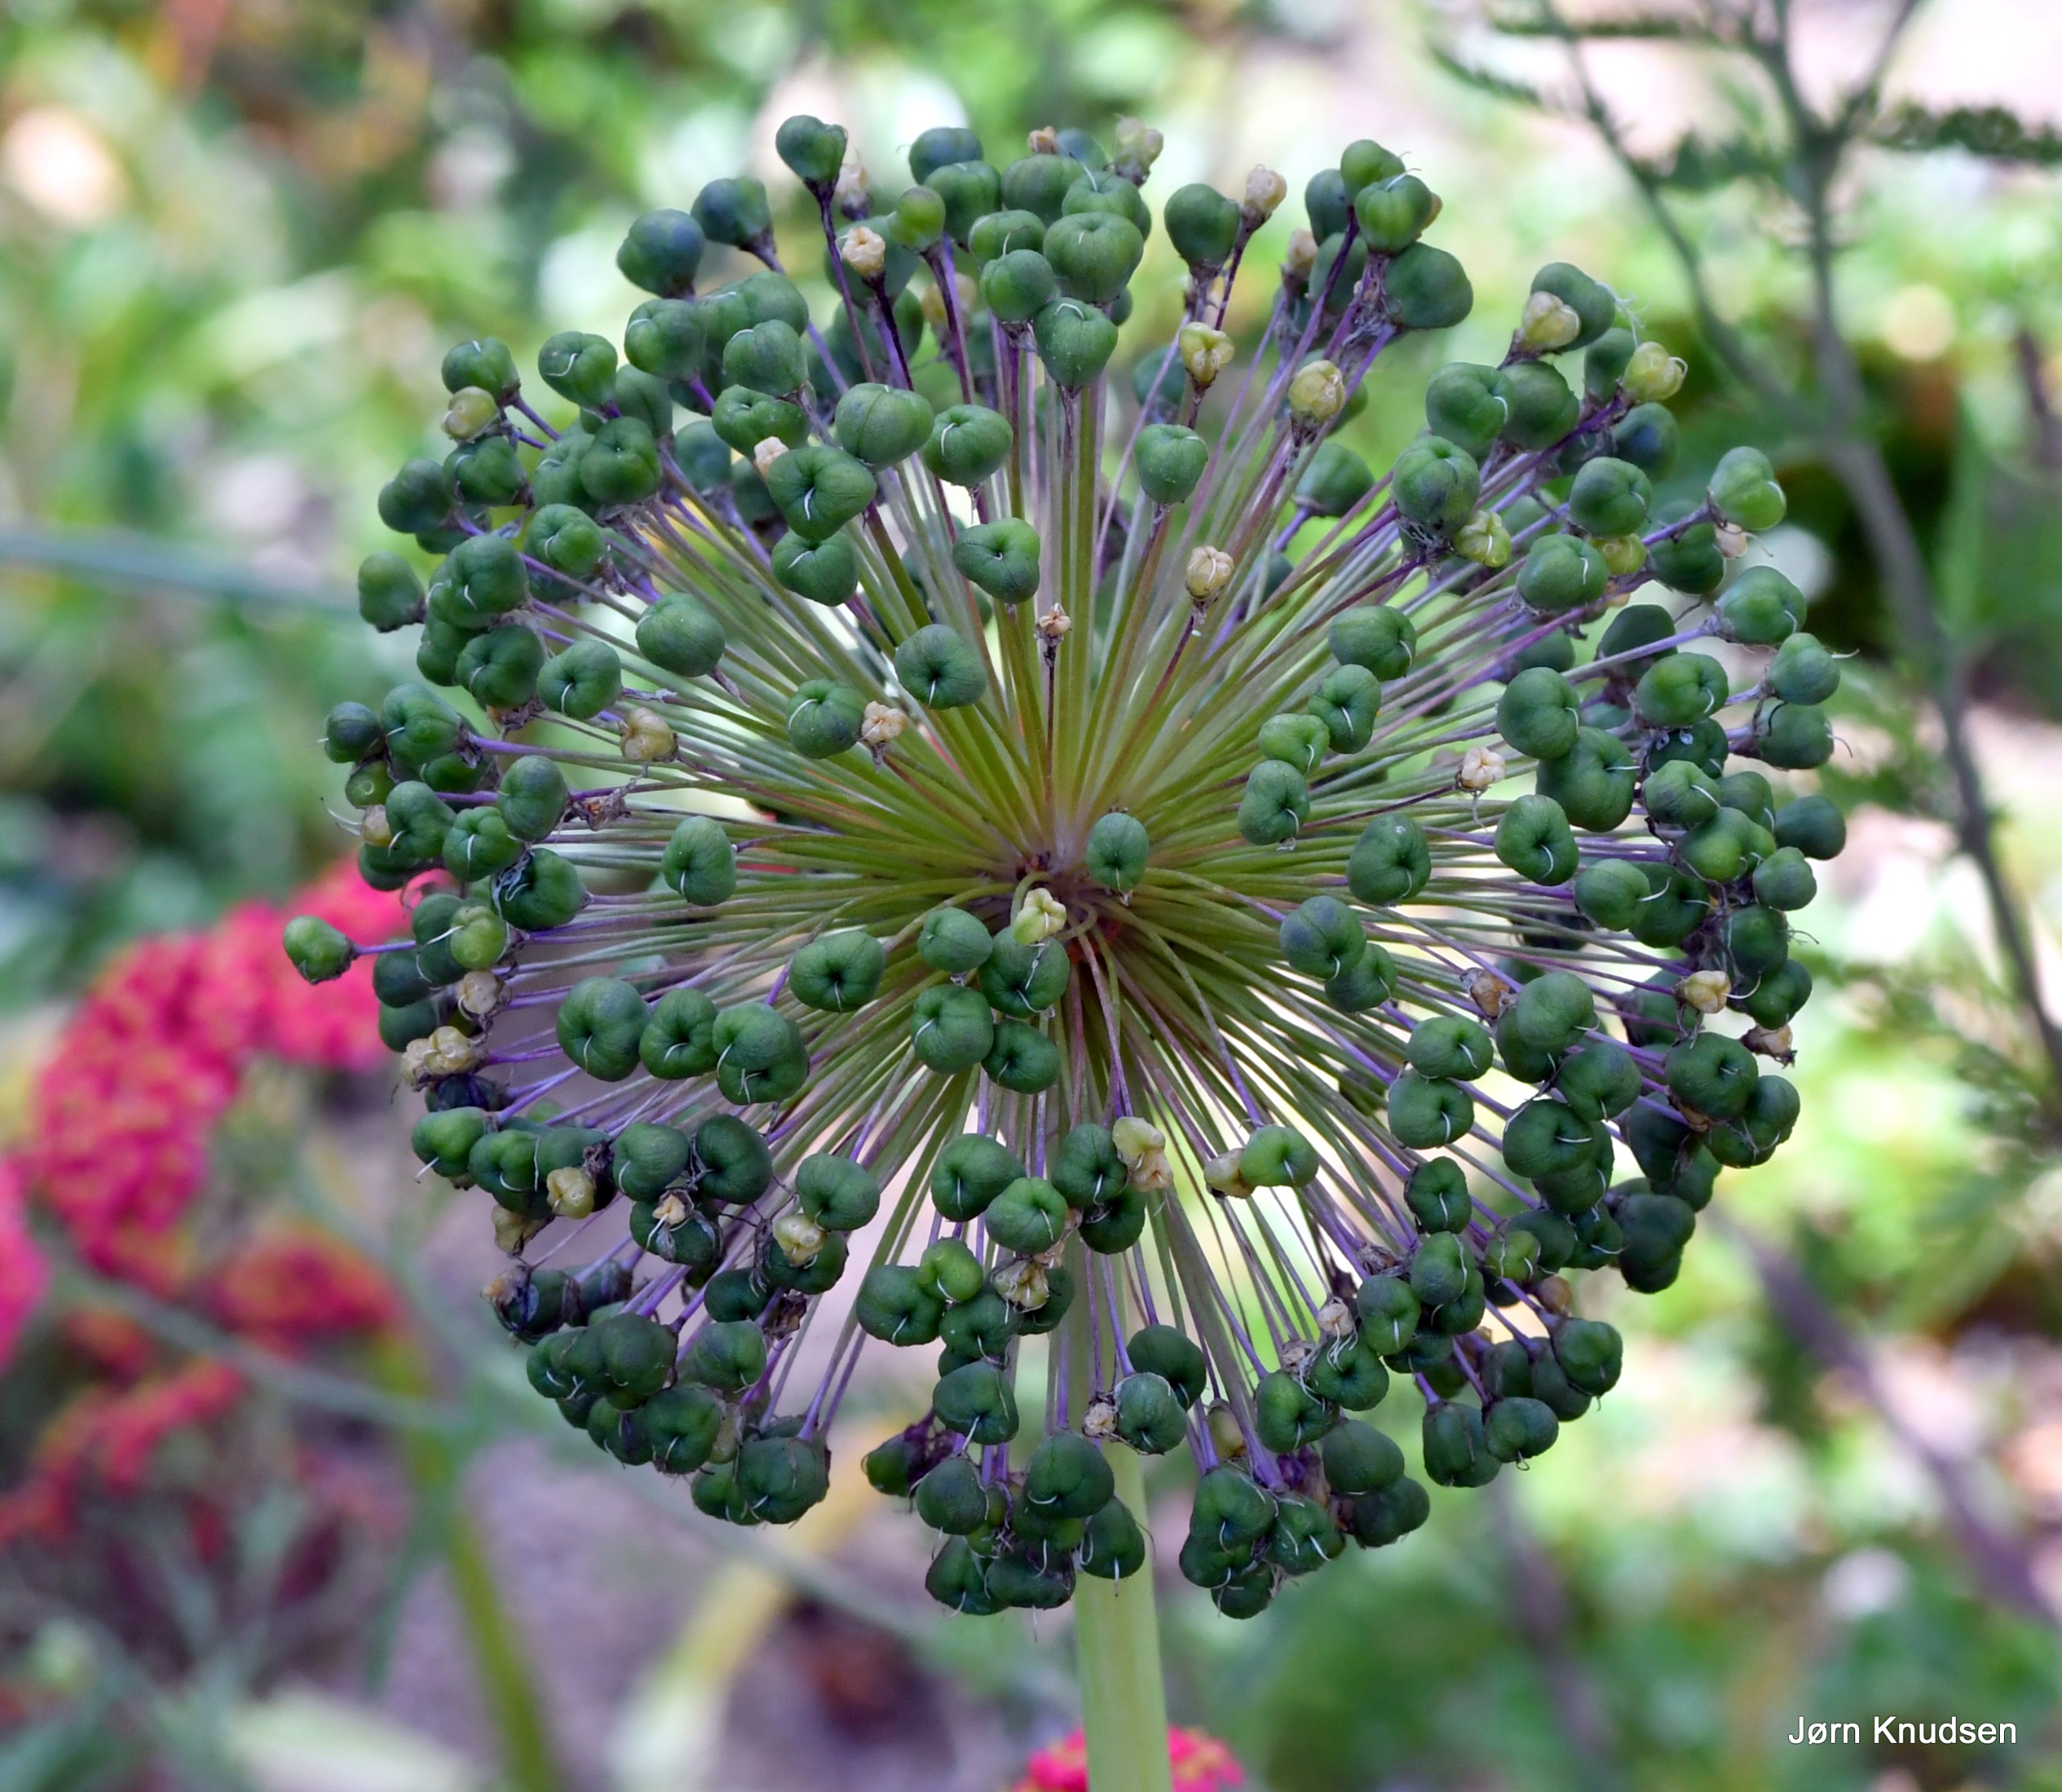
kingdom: Plantae
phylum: Tracheophyta
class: Liliopsida
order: Asparagales
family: Amaryllidaceae
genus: Allium
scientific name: Allium
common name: Løgslægten
